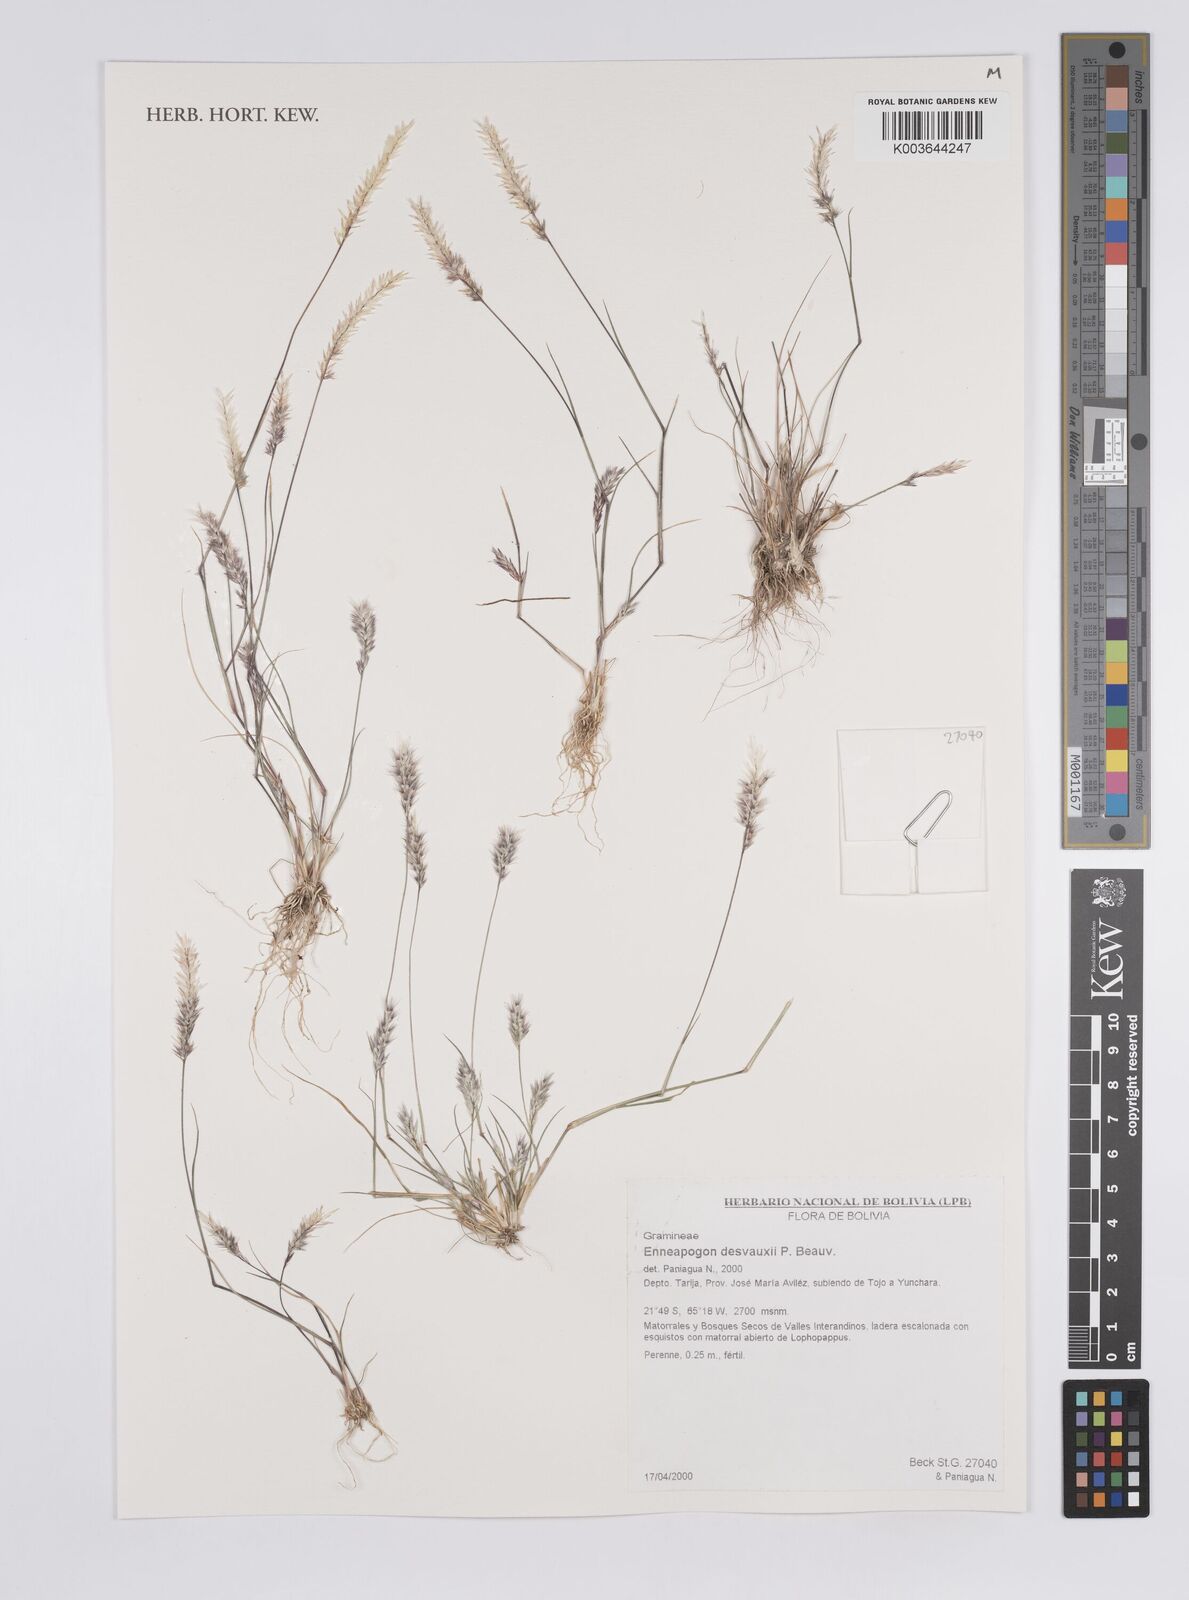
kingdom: Plantae
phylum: Tracheophyta
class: Liliopsida
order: Poales
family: Poaceae
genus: Enneapogon
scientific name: Enneapogon desvauxii
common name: Feather pappus grass
